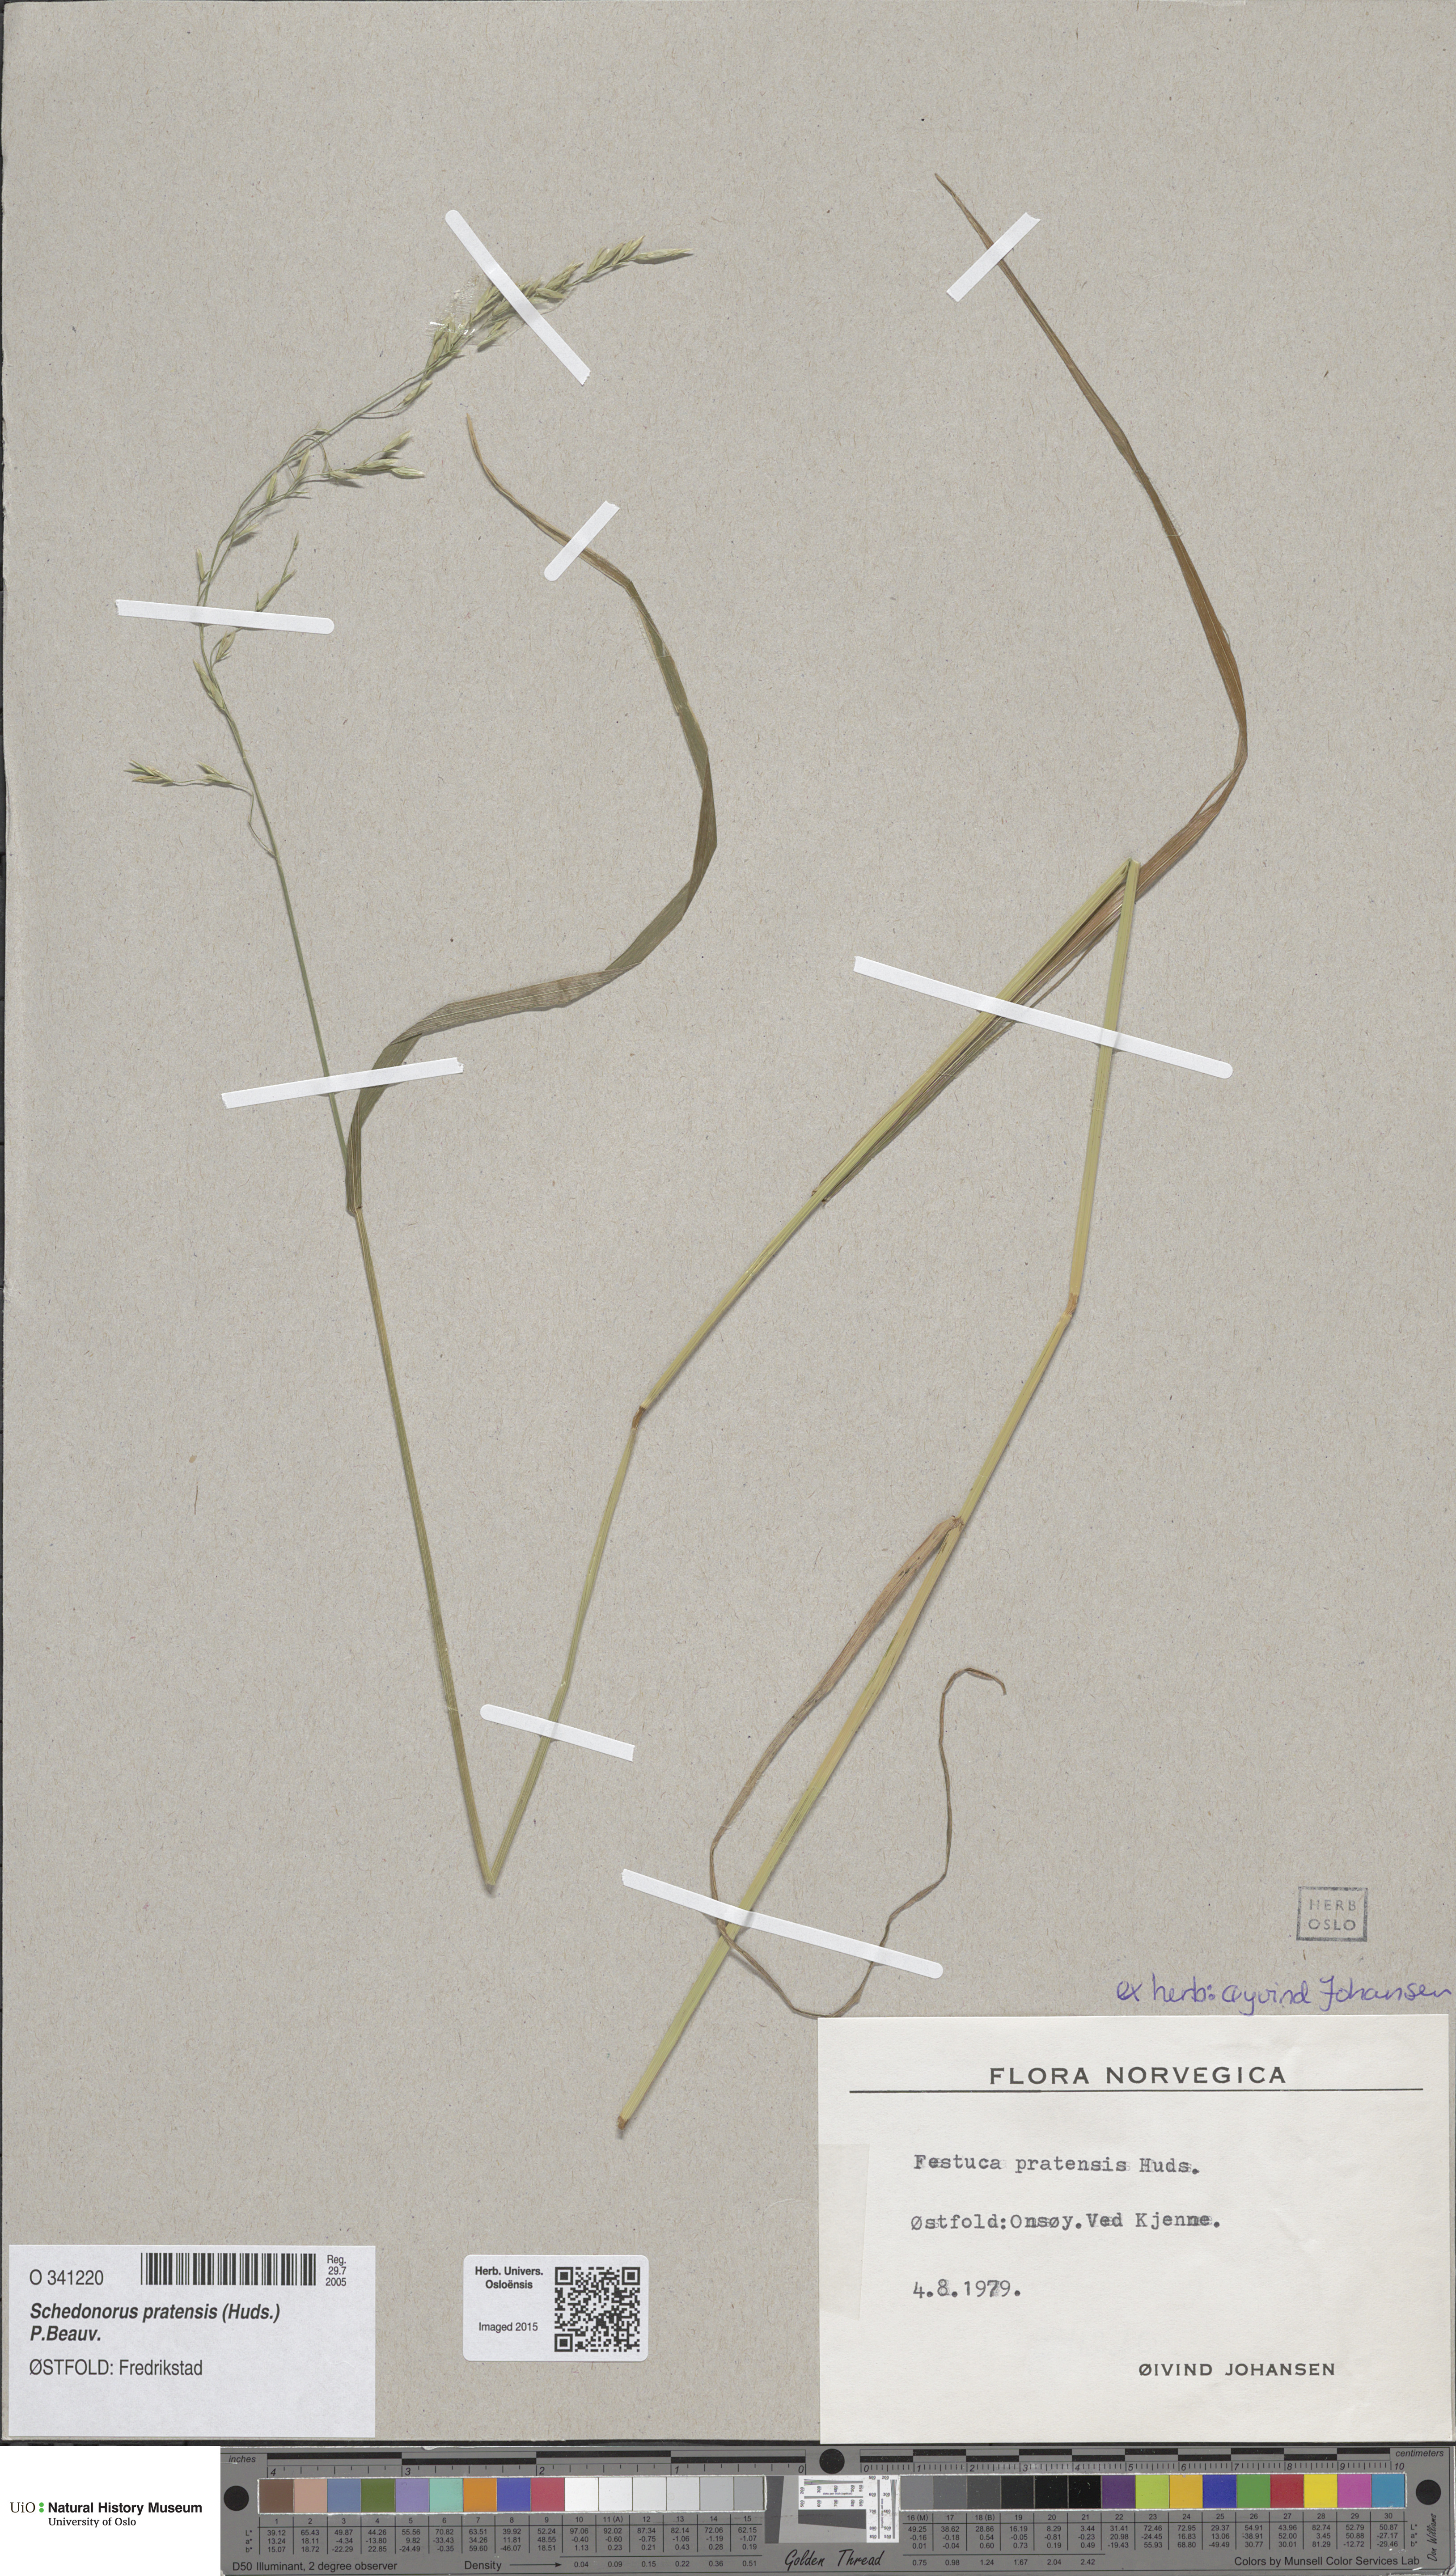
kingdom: Plantae
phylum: Tracheophyta
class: Liliopsida
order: Poales
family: Poaceae
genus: Lolium
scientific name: Lolium pratense
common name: Dover grass
